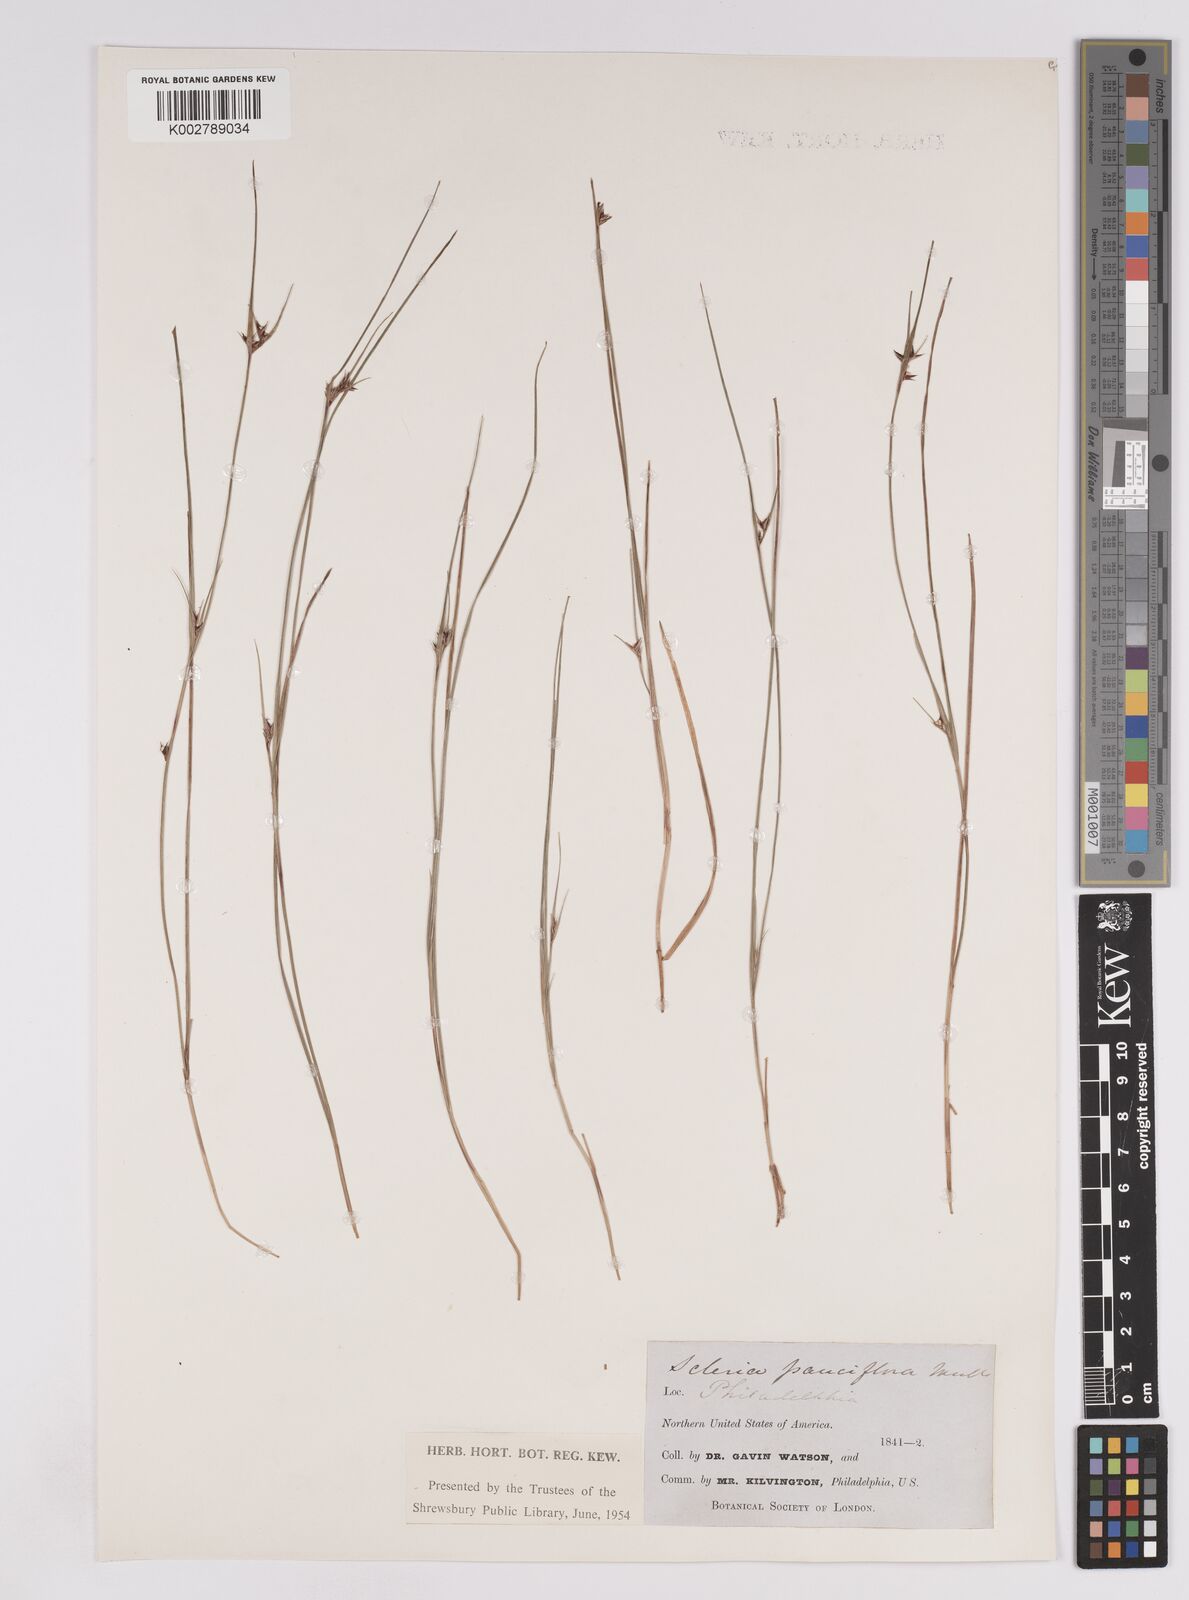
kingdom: Plantae
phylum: Tracheophyta
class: Liliopsida
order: Poales
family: Cyperaceae
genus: Scleria
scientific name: Scleria pauciflora
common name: Few-flowered nutrush
